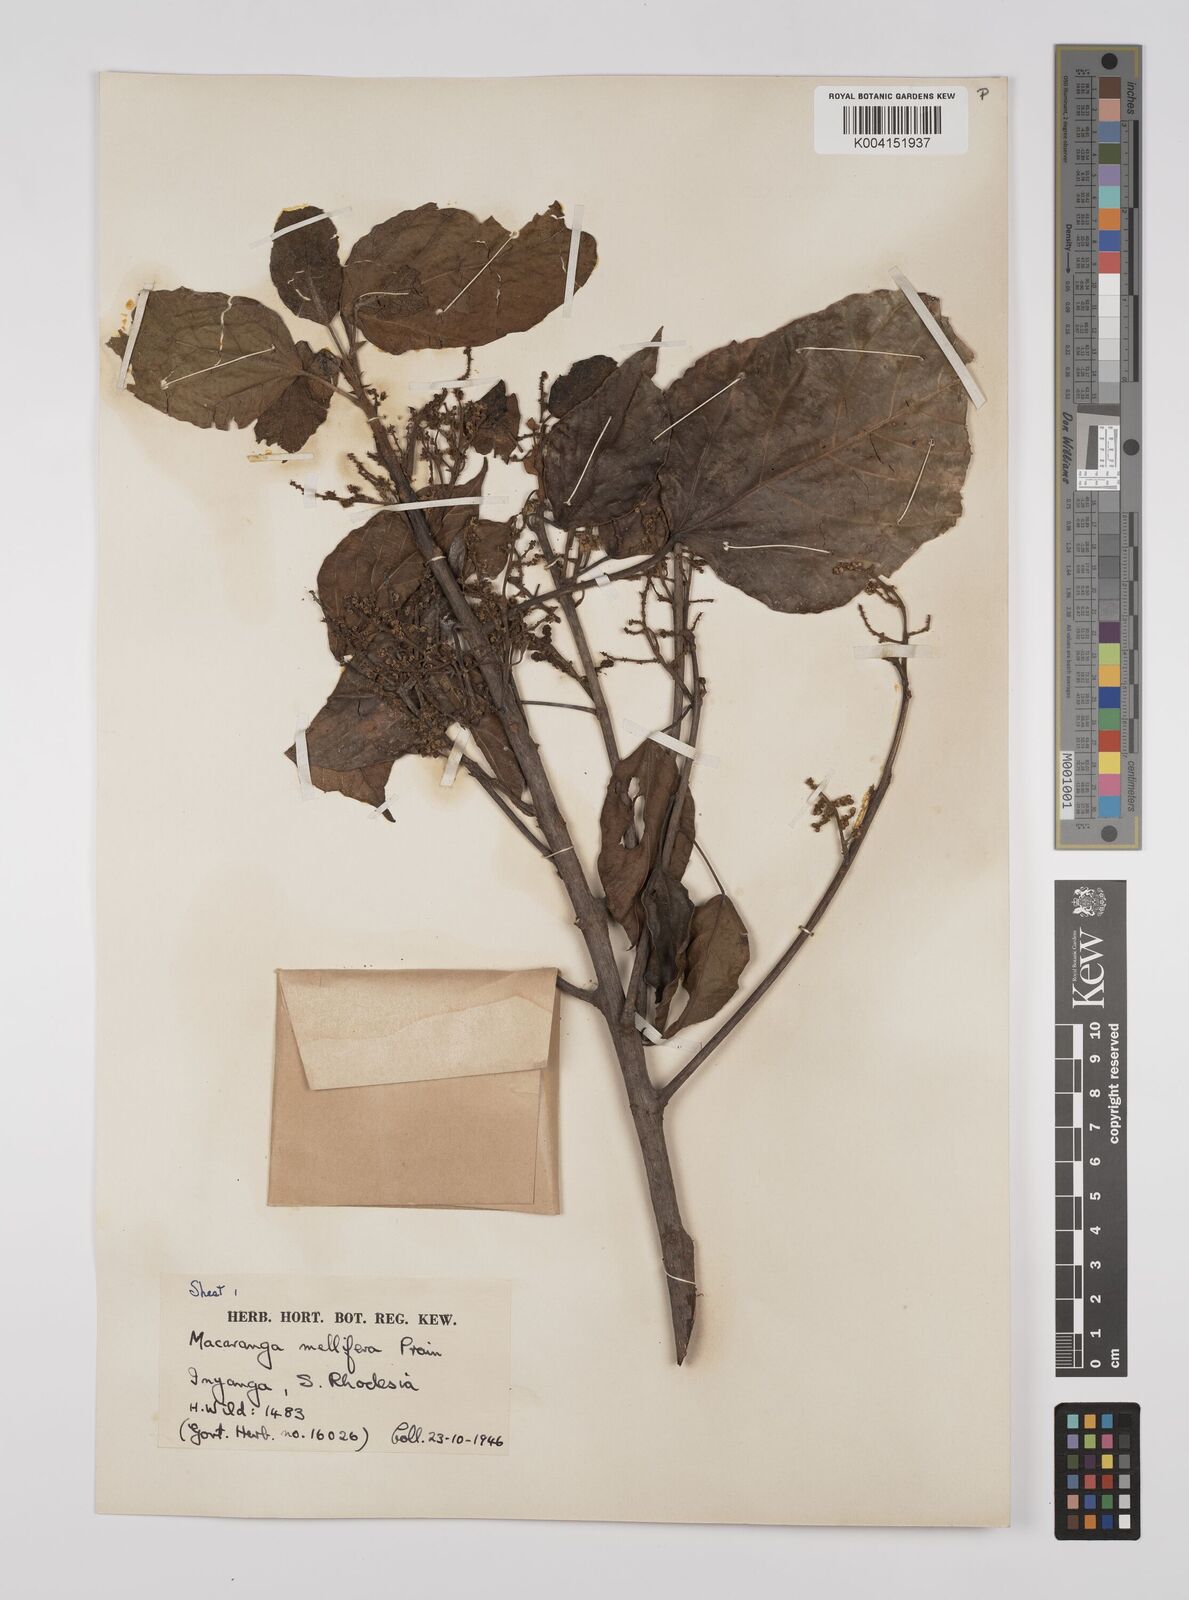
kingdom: Plantae
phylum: Tracheophyta
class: Magnoliopsida
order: Malpighiales
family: Euphorbiaceae
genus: Macaranga
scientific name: Macaranga mellifera
